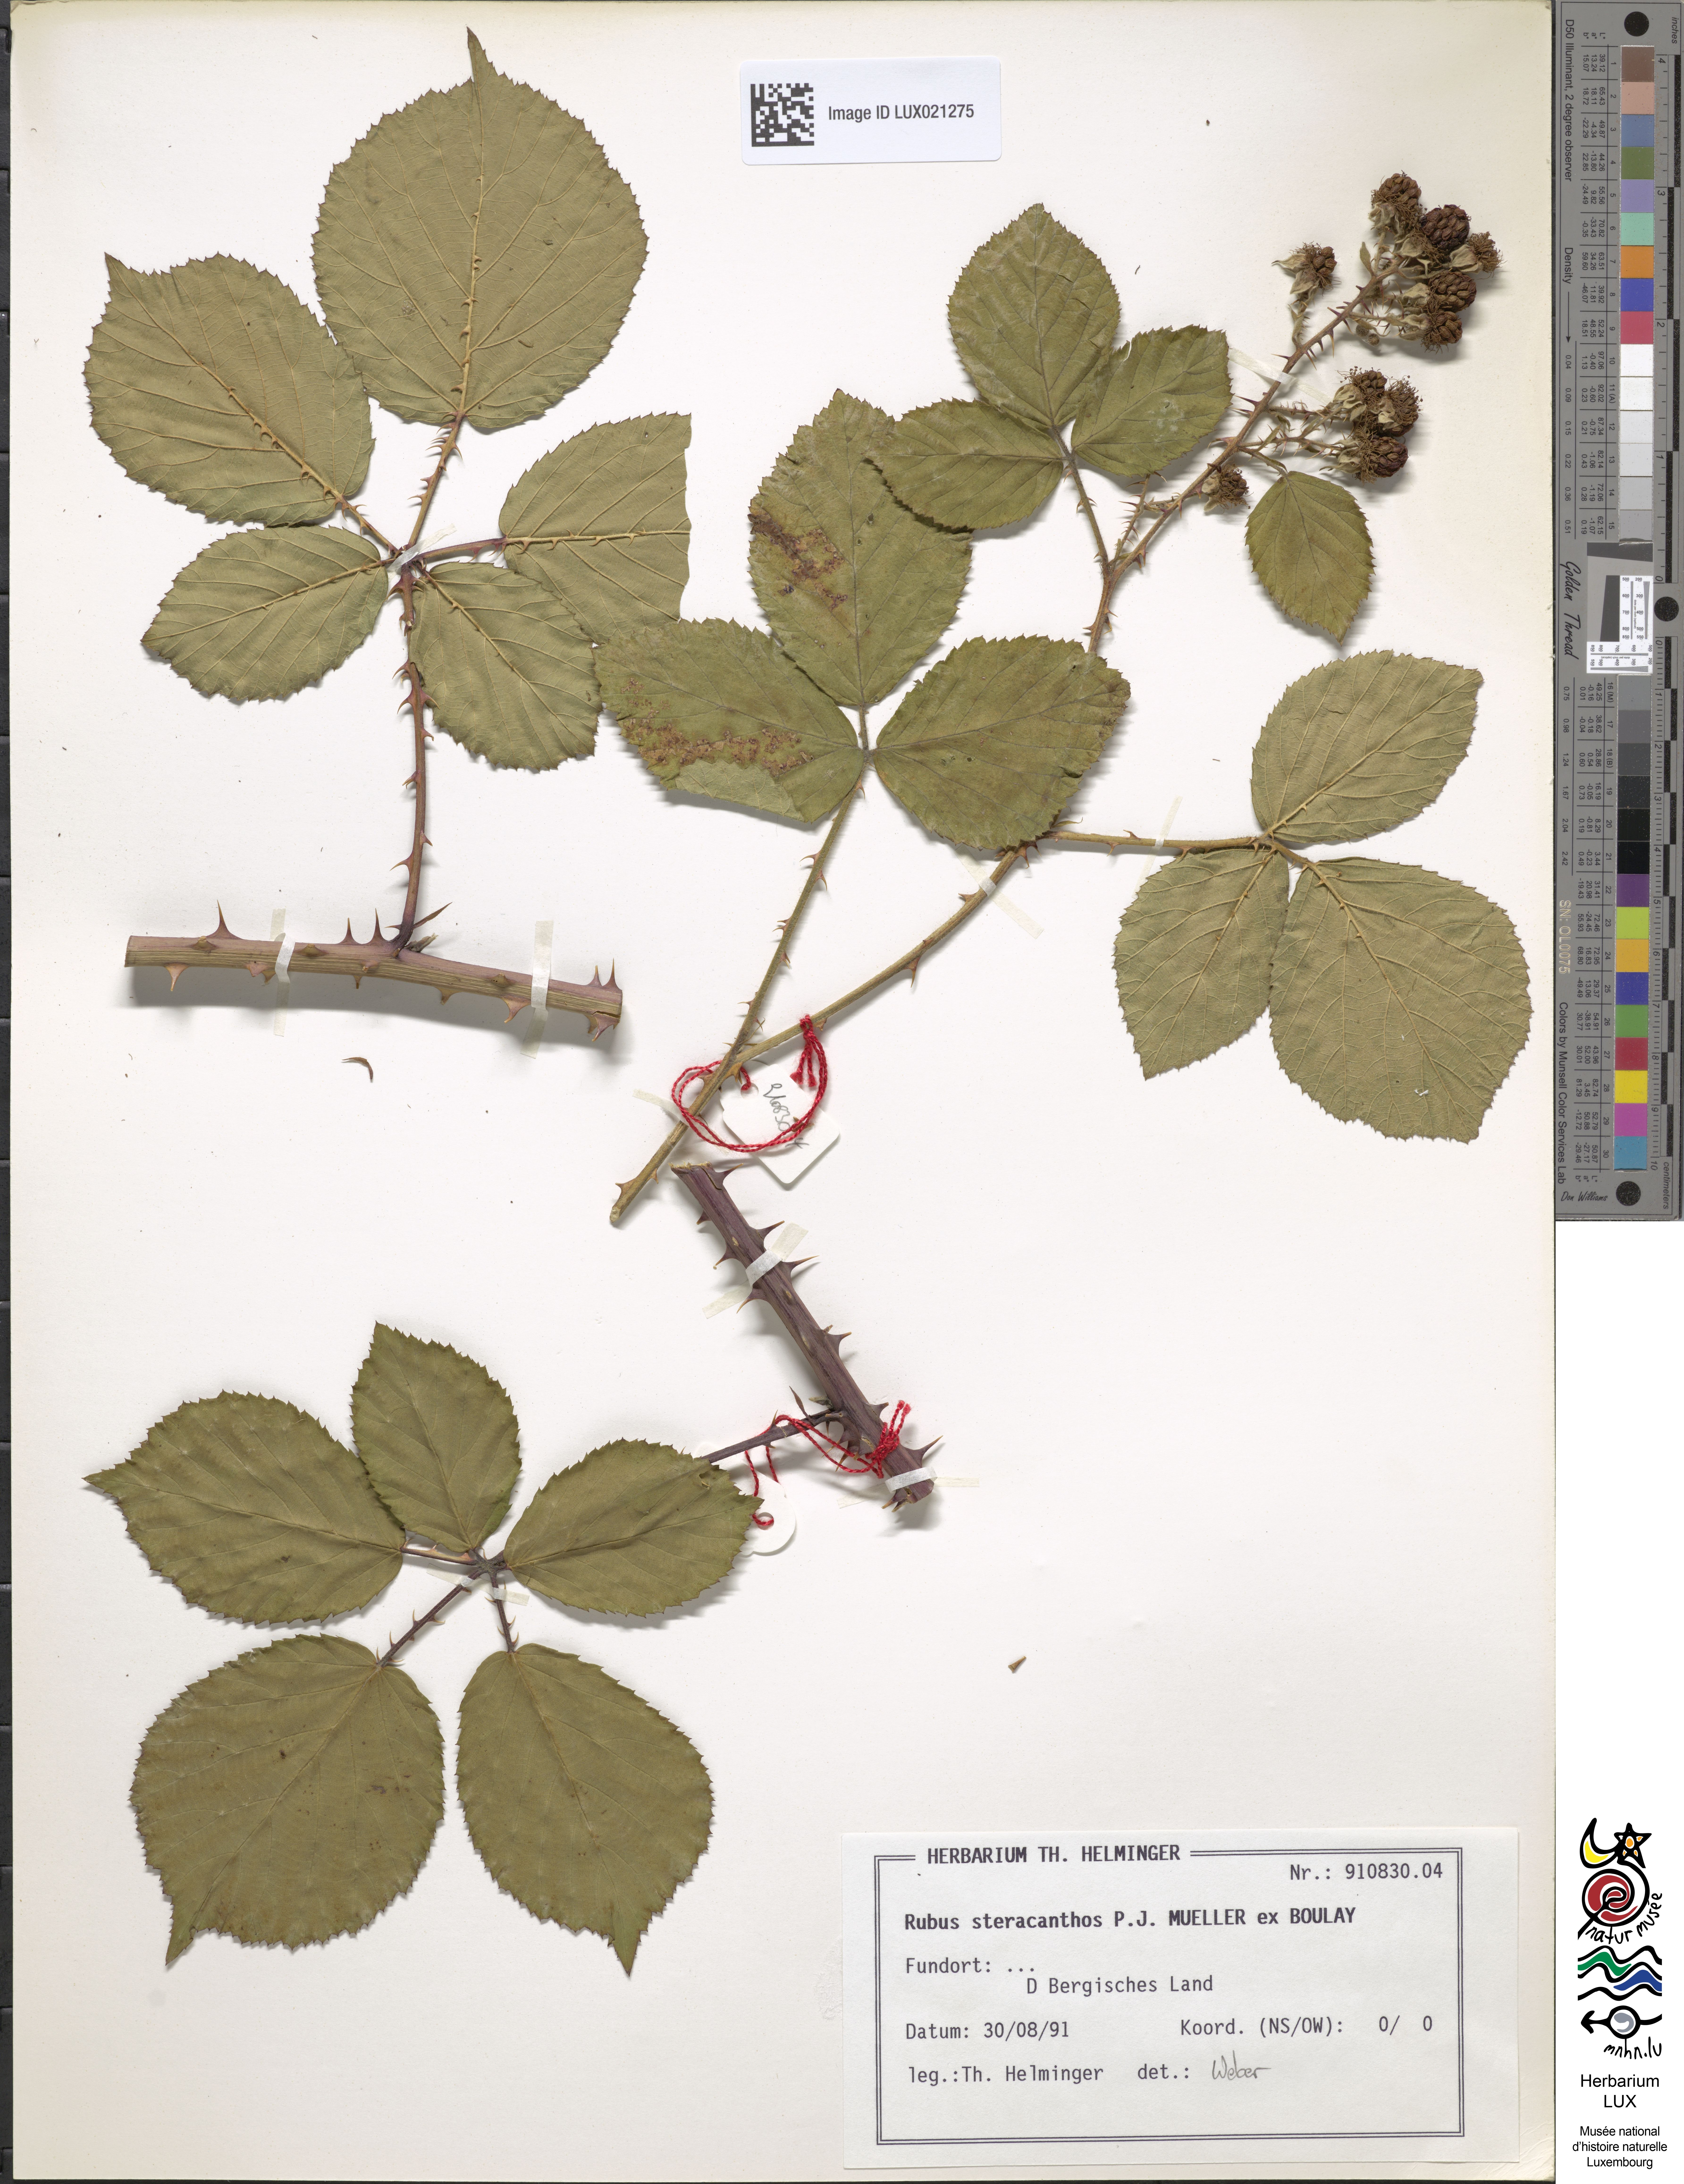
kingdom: Plantae
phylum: Tracheophyta
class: Magnoliopsida
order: Rosales
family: Rosaceae
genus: Rubus
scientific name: Rubus steracanthos
